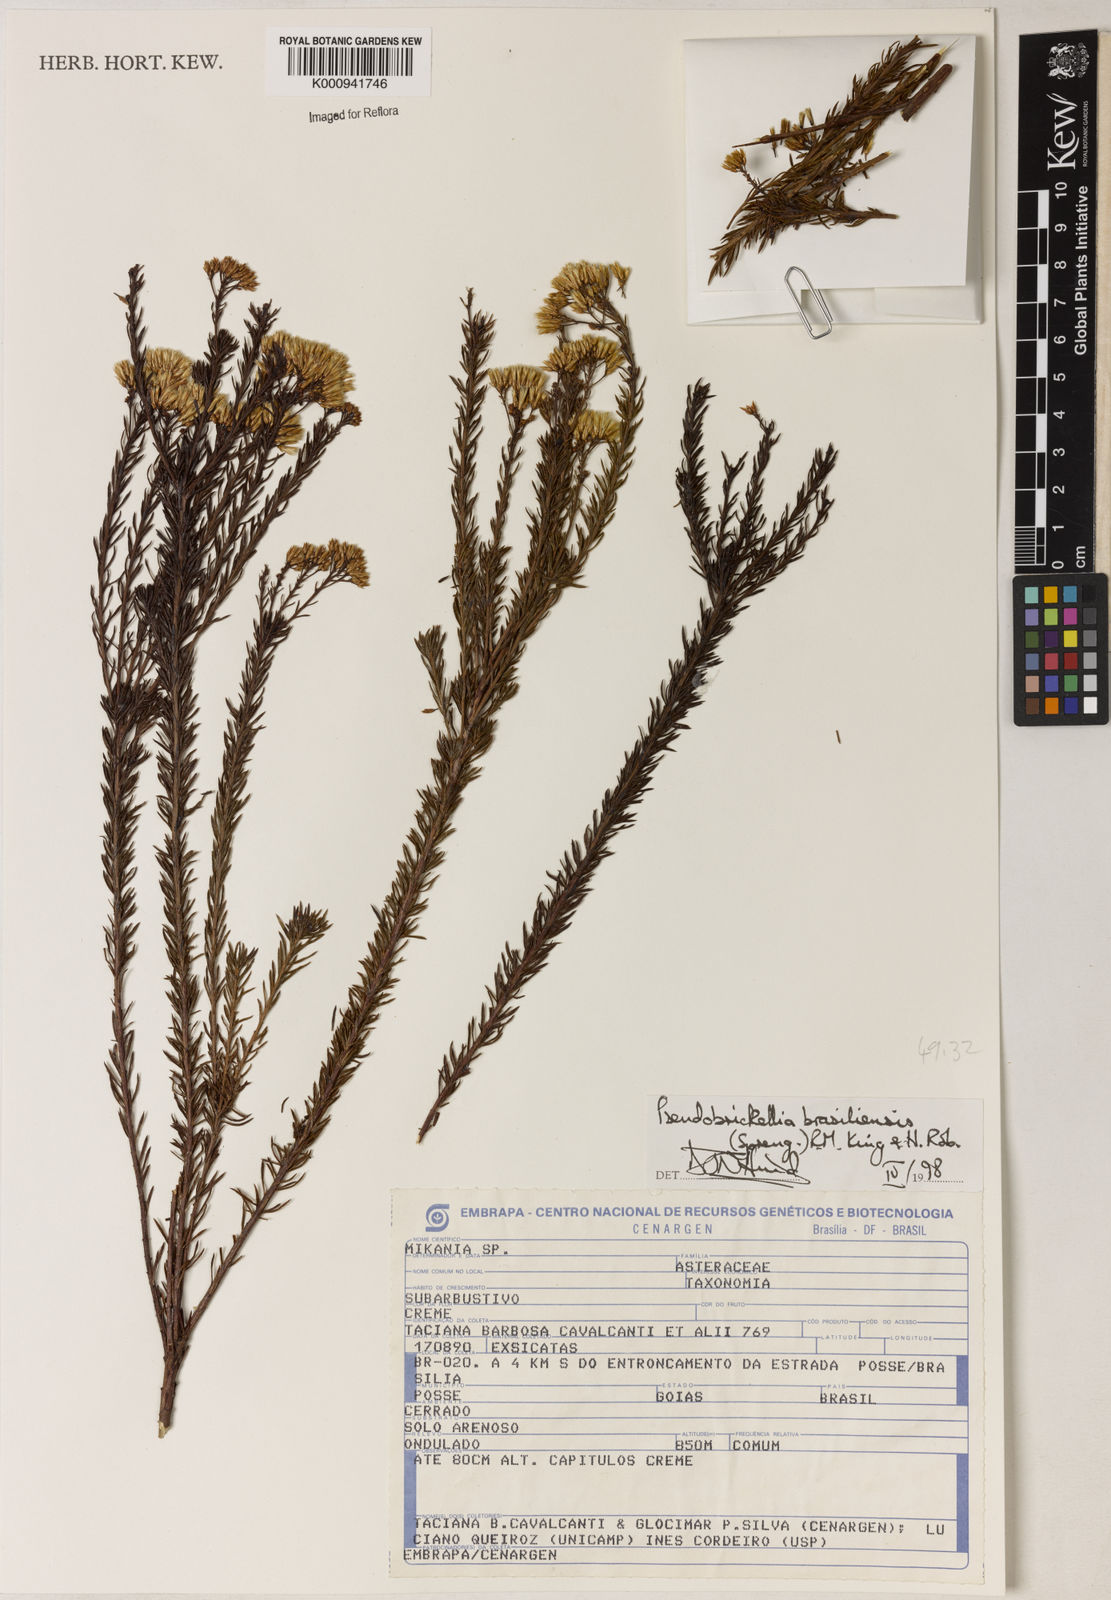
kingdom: Plantae
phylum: Tracheophyta
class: Magnoliopsida
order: Asterales
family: Asteraceae
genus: Pseudobrickellia
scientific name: Pseudobrickellia brasiliensis
